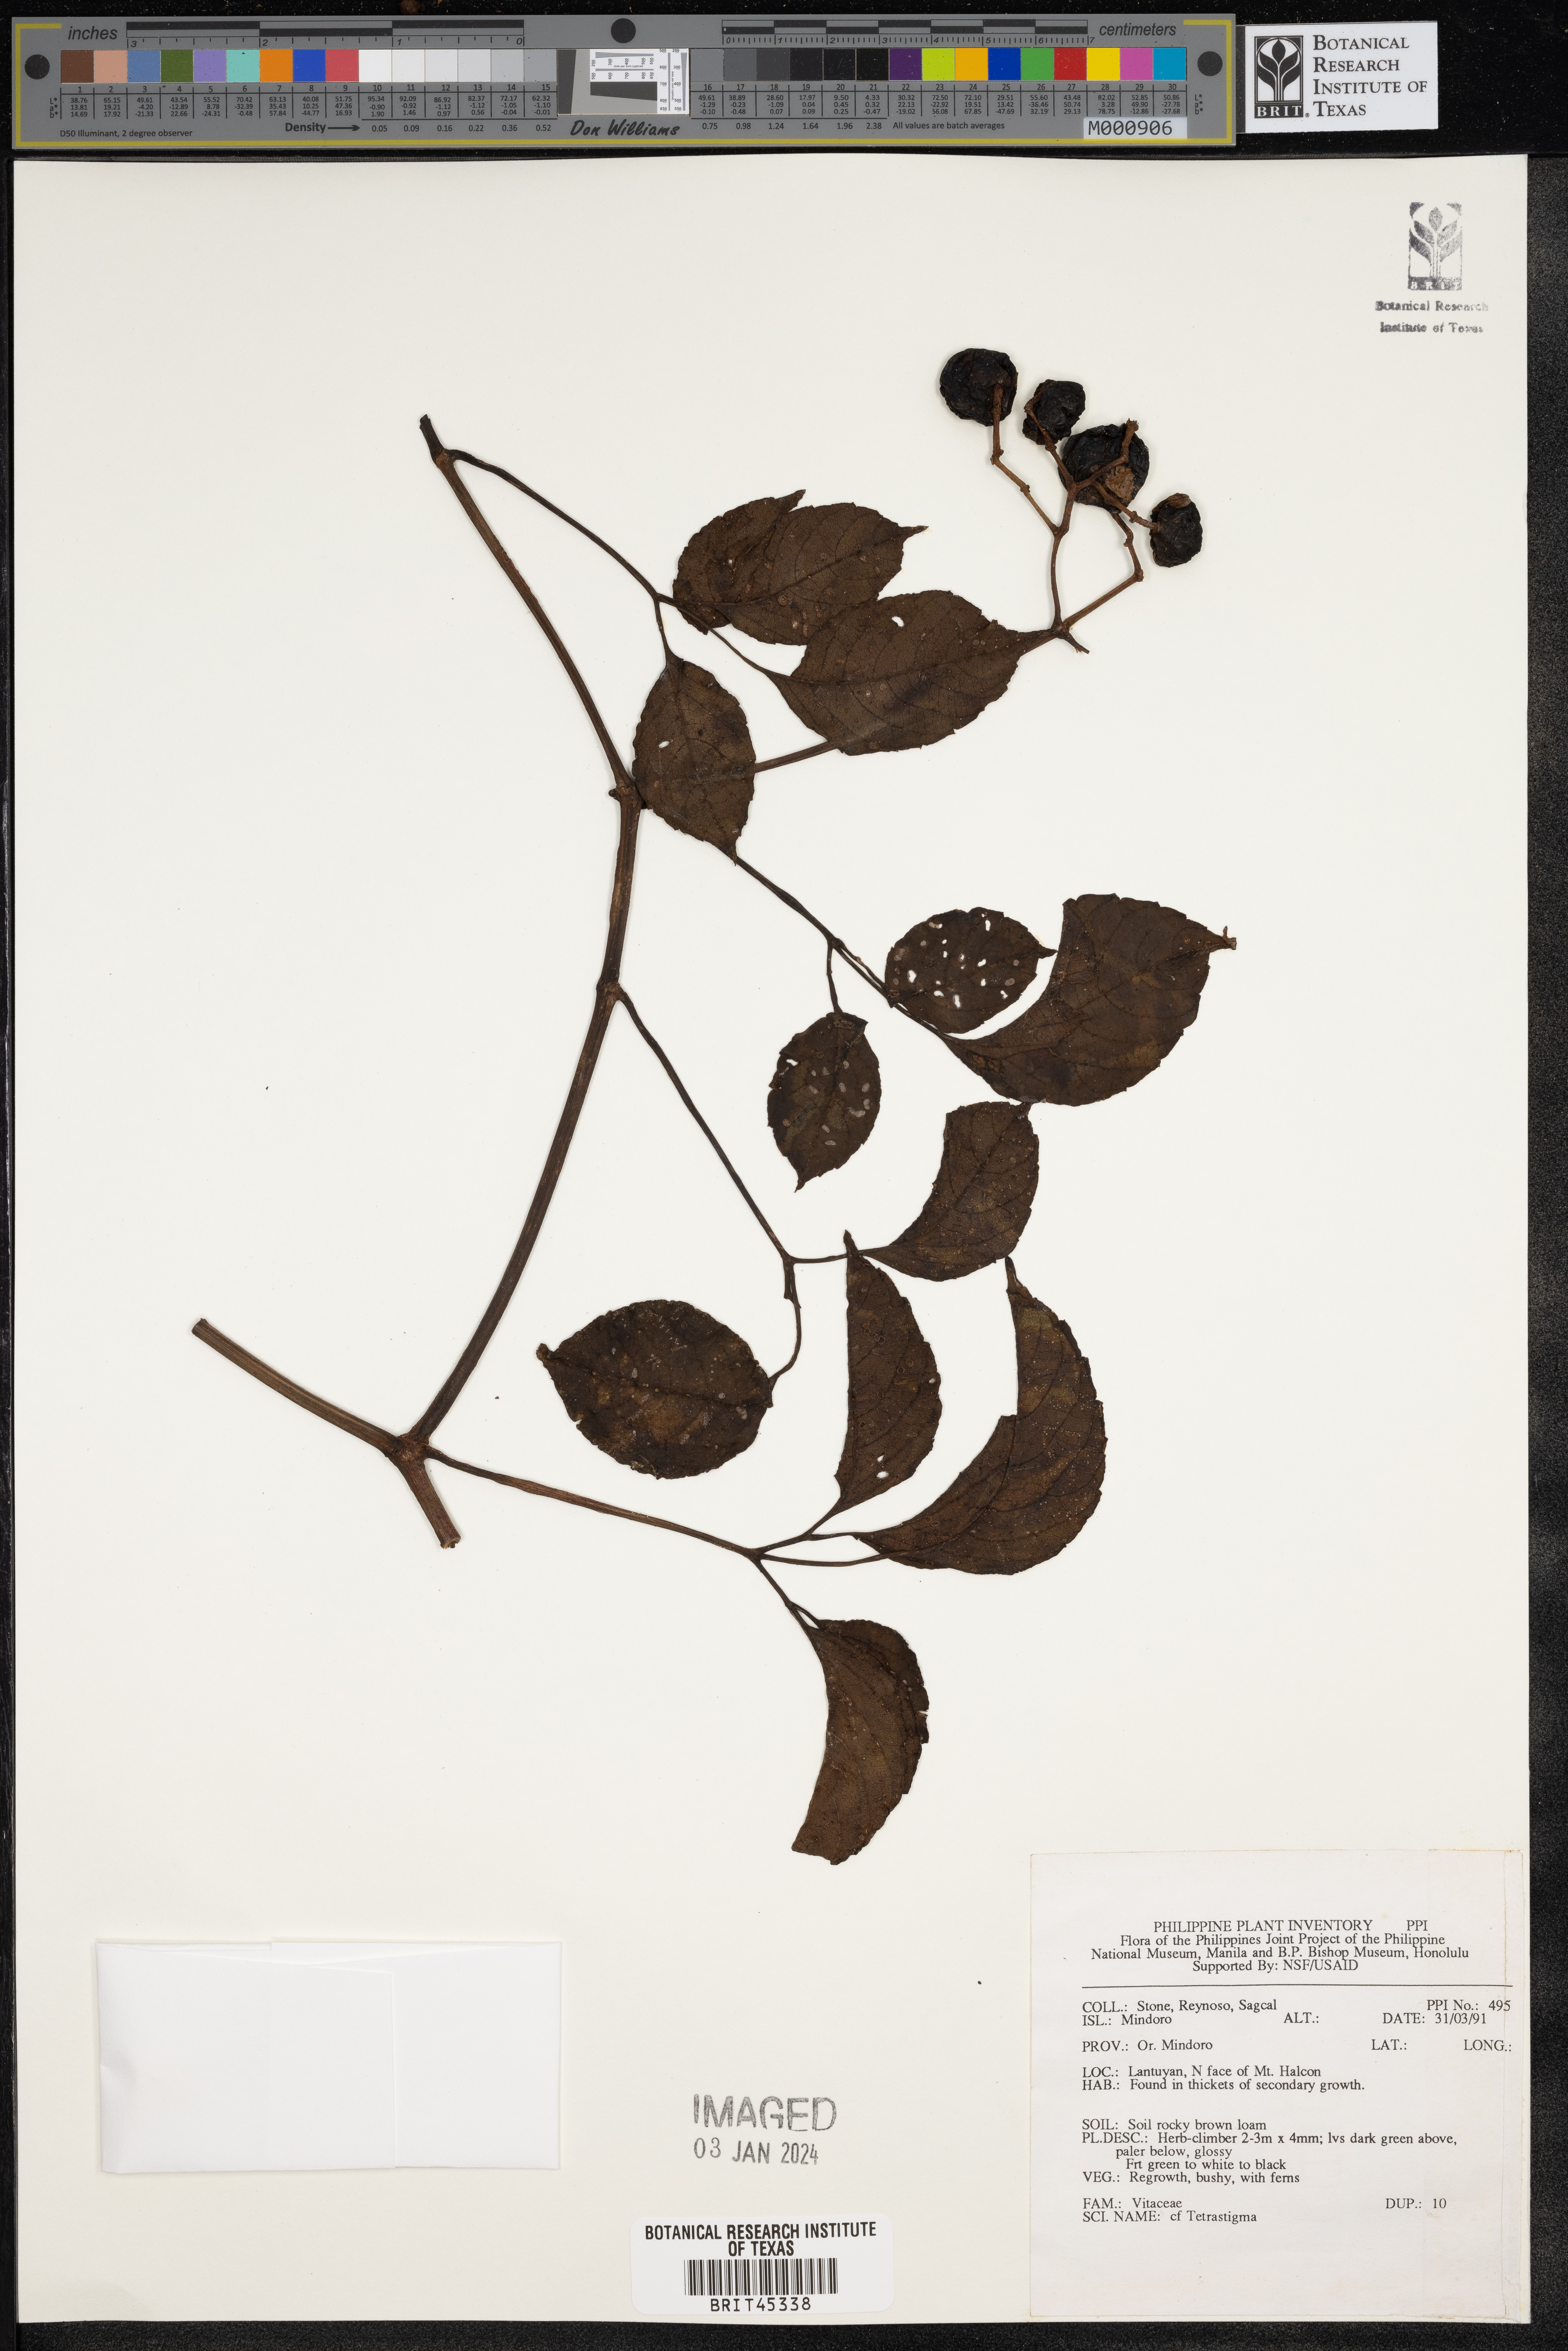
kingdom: Plantae
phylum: Tracheophyta
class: Magnoliopsida
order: Vitales
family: Vitaceae
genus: Tetrastigma
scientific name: Tetrastigma
